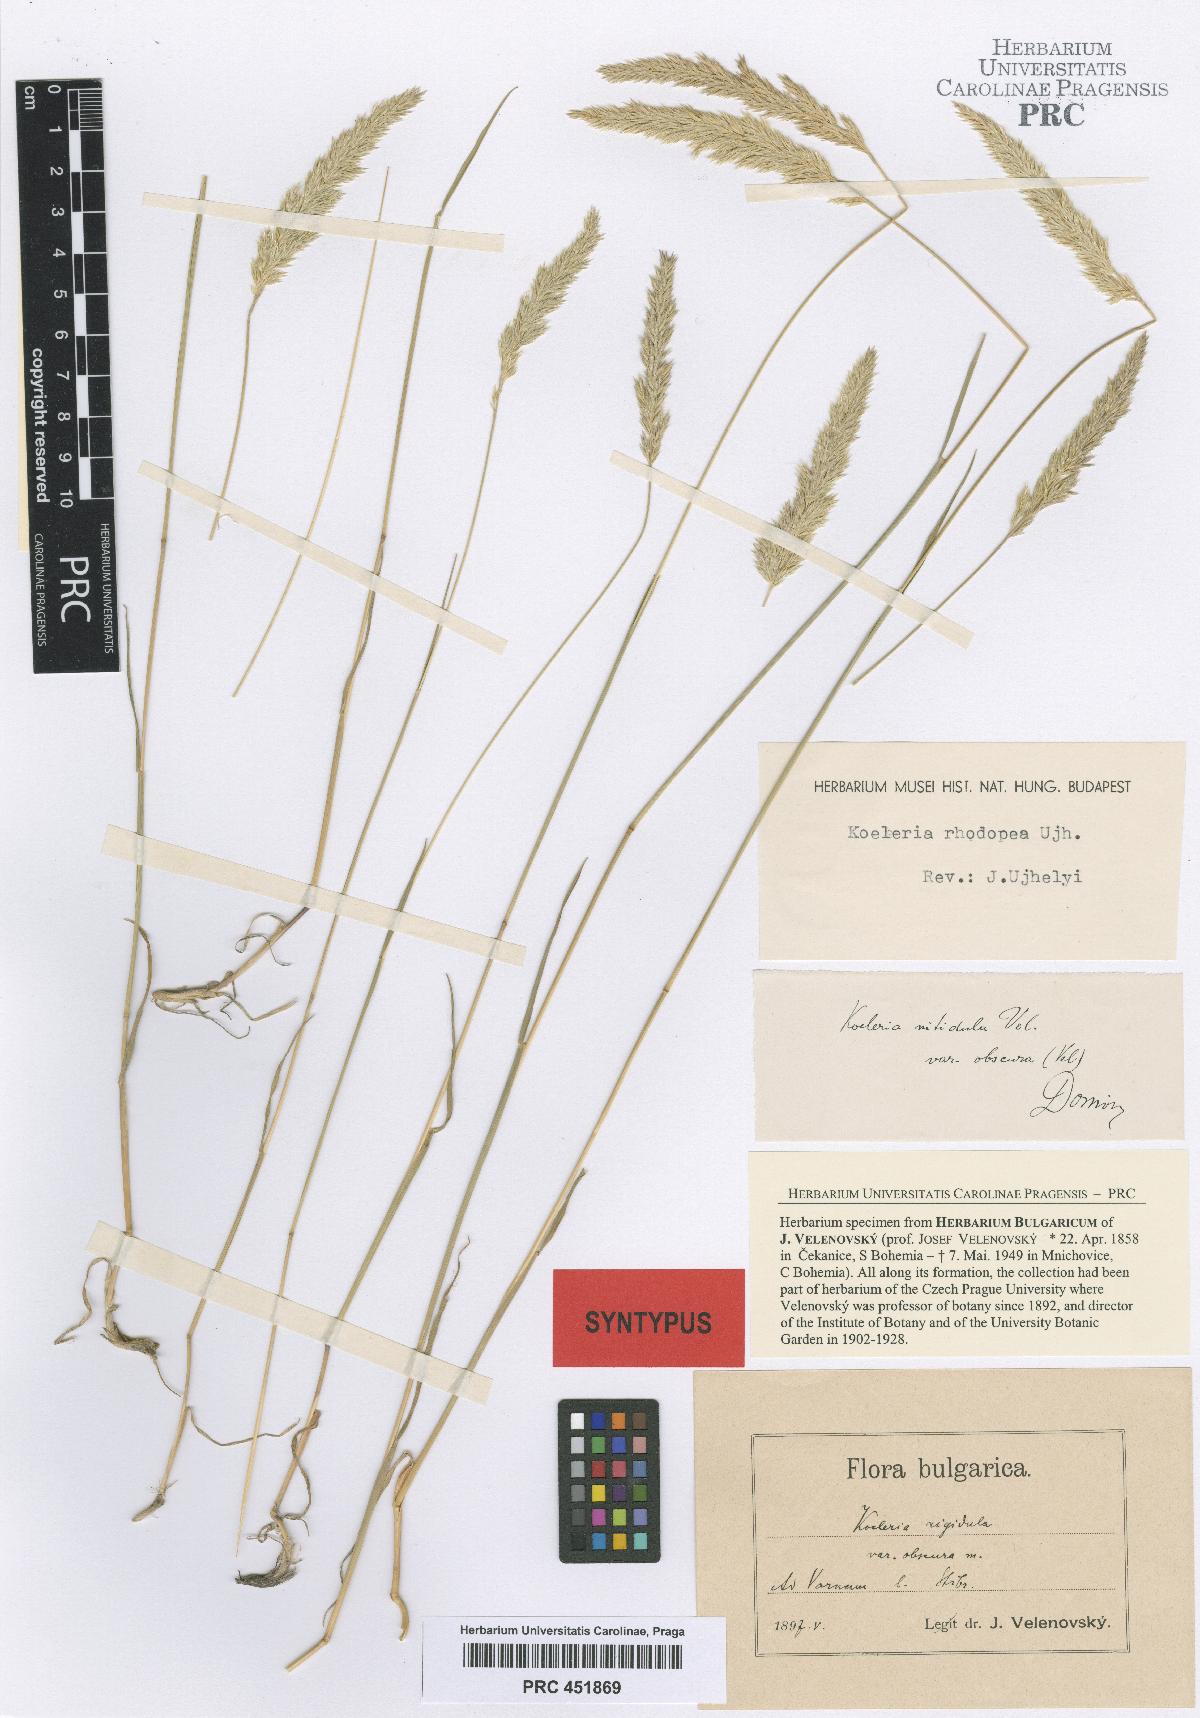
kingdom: Plantae
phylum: Tracheophyta
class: Liliopsida
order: Poales
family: Poaceae
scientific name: Poaceae
